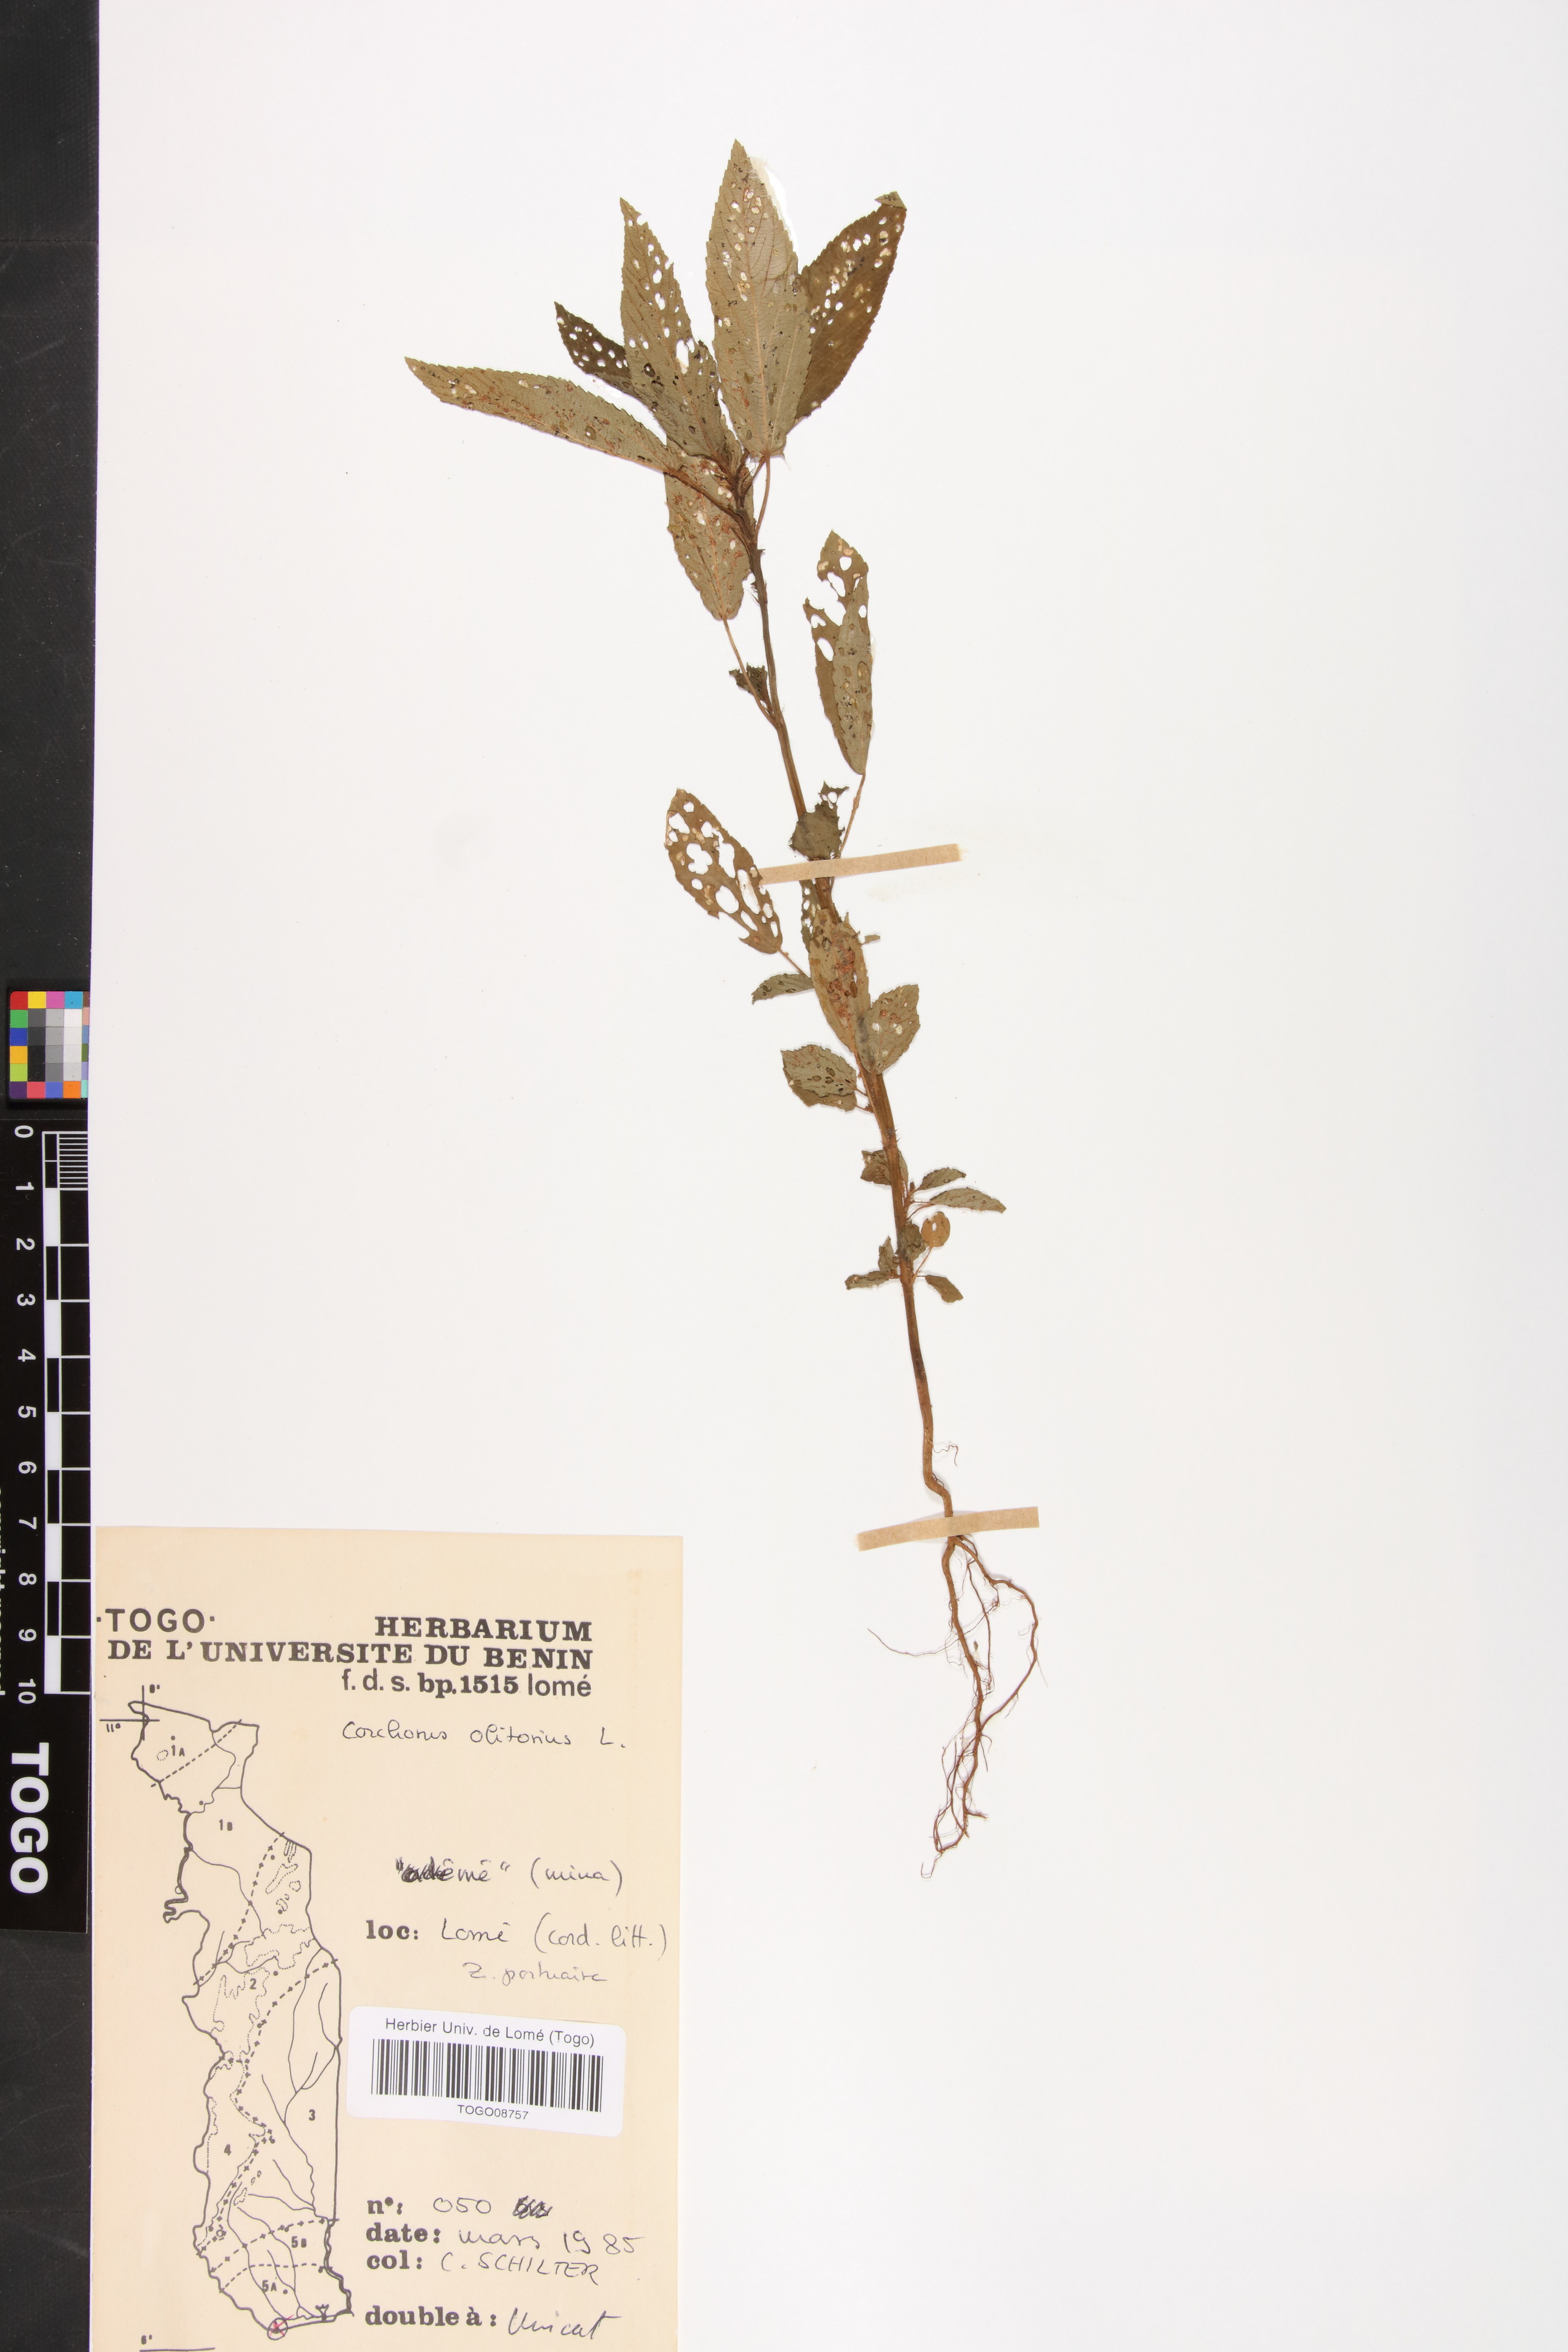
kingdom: Plantae
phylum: Tracheophyta
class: Magnoliopsida
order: Malvales
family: Malvaceae
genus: Corchorus
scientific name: Corchorus olitorius
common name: Tossa jute
